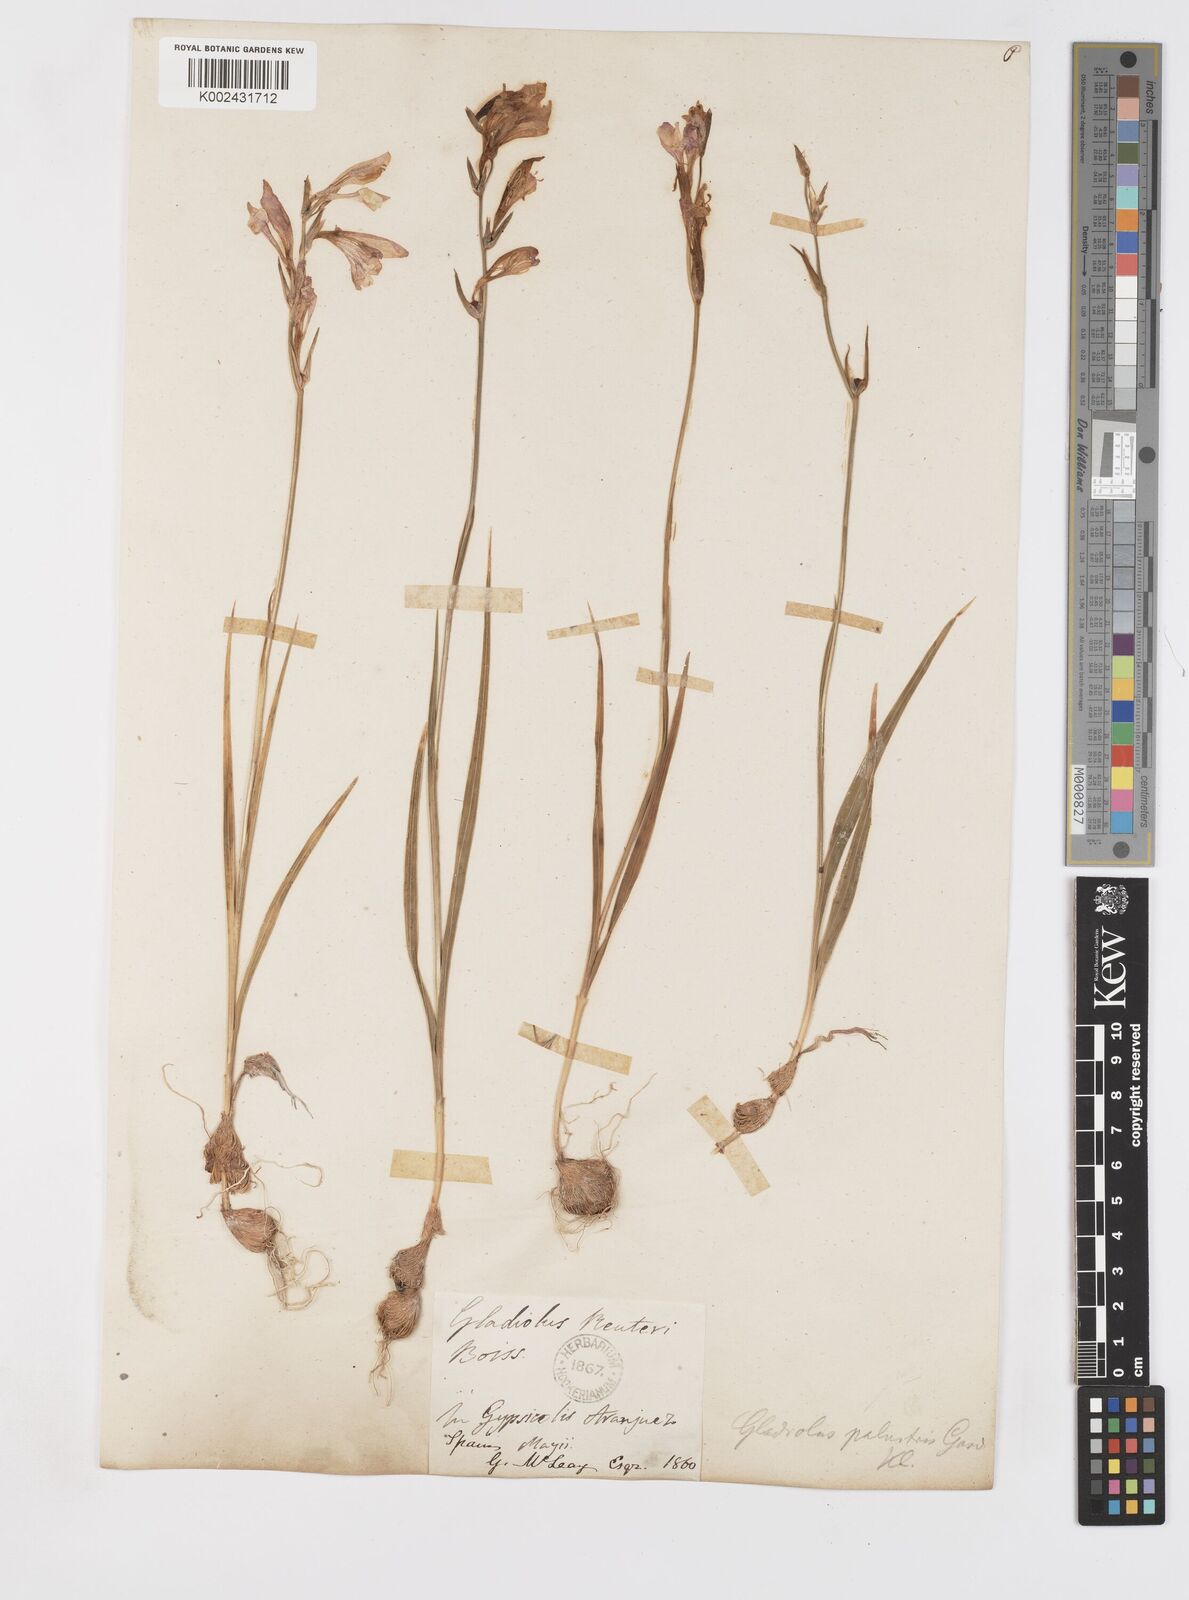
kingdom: Plantae
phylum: Tracheophyta
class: Liliopsida
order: Asparagales
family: Iridaceae
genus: Gladiolus
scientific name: Gladiolus illyricus
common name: Wild gladiolus
